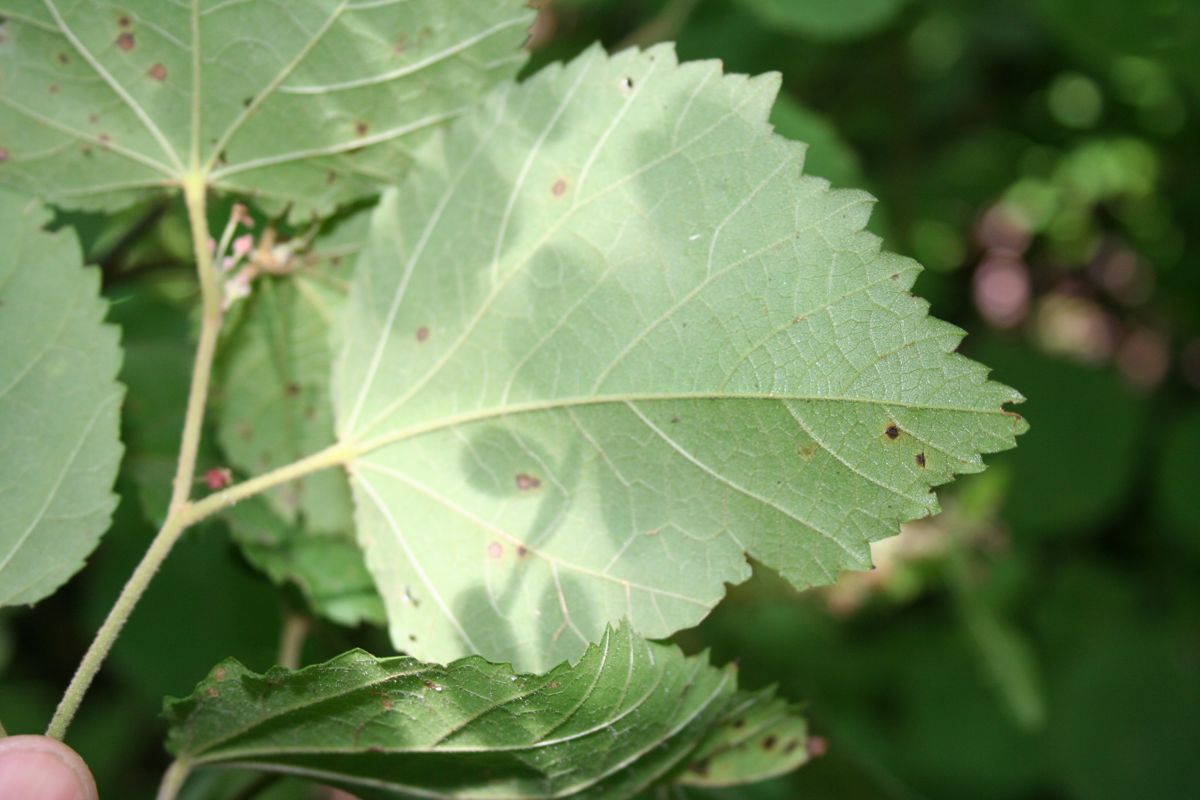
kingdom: Plantae
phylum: Tracheophyta
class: Magnoliopsida
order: Malvales
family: Malvaceae
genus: Ayenia
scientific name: Ayenia micrantha
